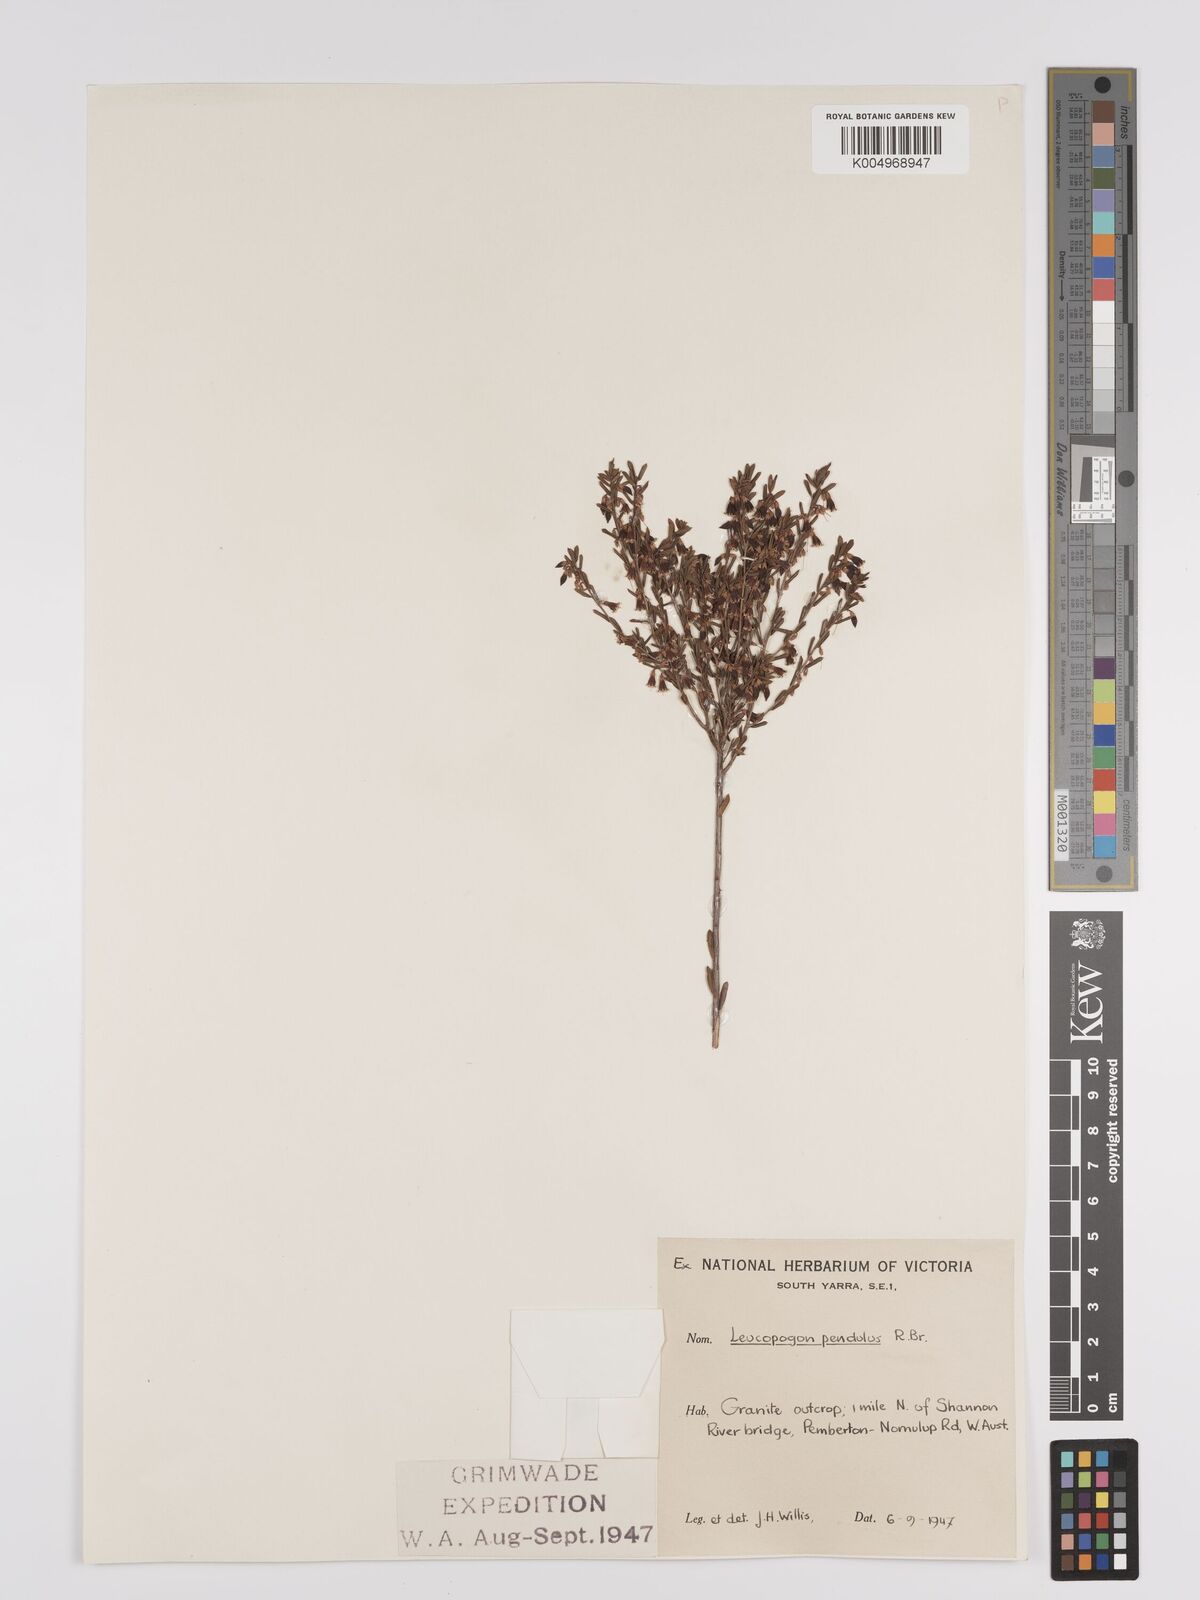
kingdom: Plantae
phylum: Tracheophyta
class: Magnoliopsida
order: Ericales
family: Ericaceae
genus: Styphelia
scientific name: Styphelia pendula
